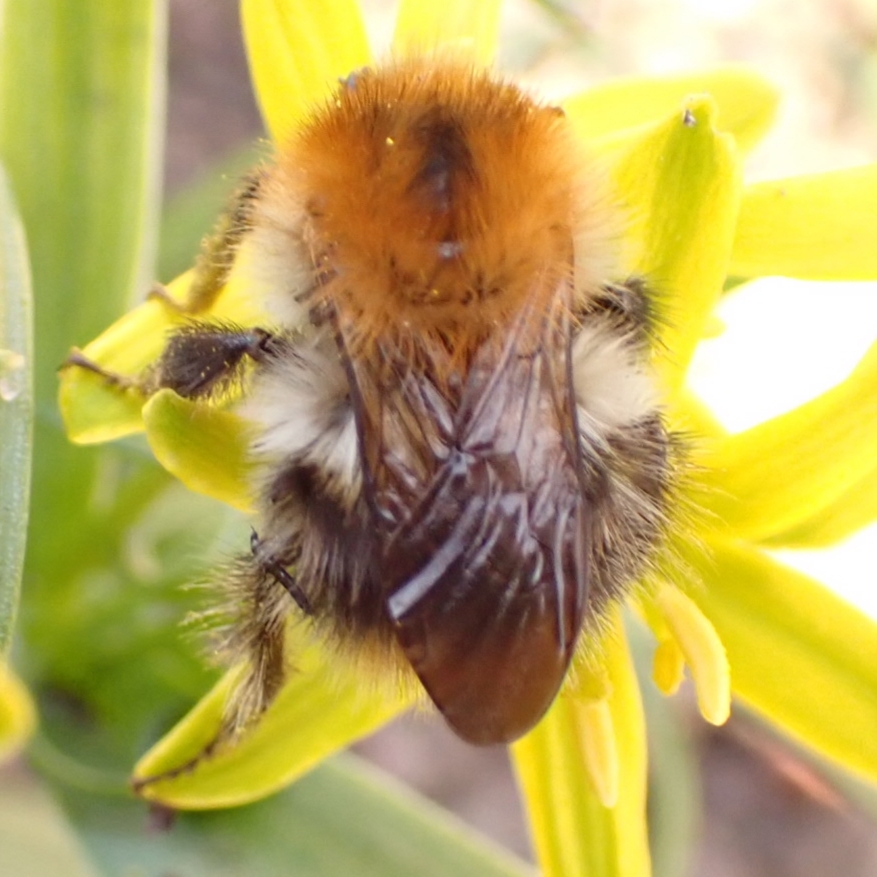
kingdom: Animalia
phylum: Arthropoda
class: Insecta
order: Hymenoptera
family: Apidae
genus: Bombus
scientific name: Bombus pascuorum
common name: Agerhumle
